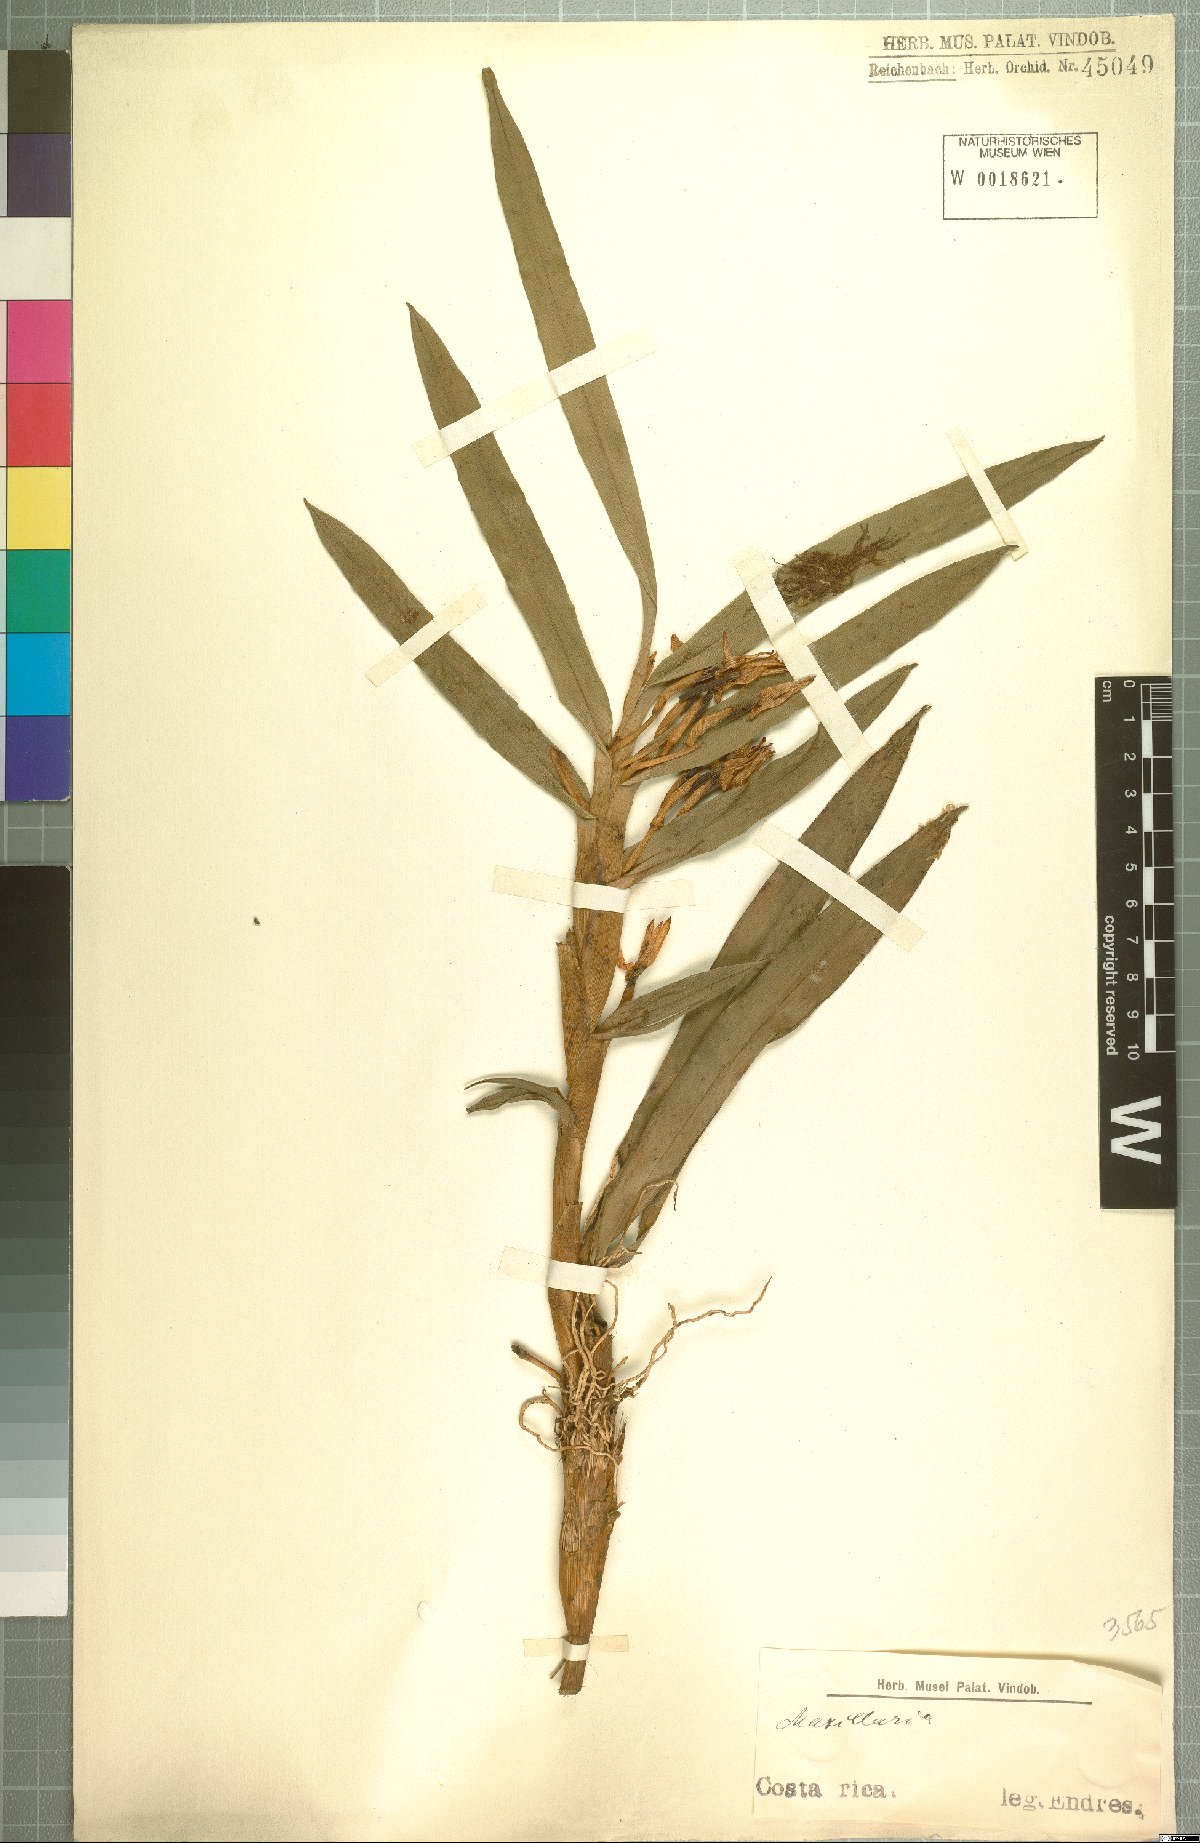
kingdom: Plantae
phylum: Tracheophyta
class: Liliopsida
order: Asparagales
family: Orchidaceae
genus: Maxillaria
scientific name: Maxillaria
